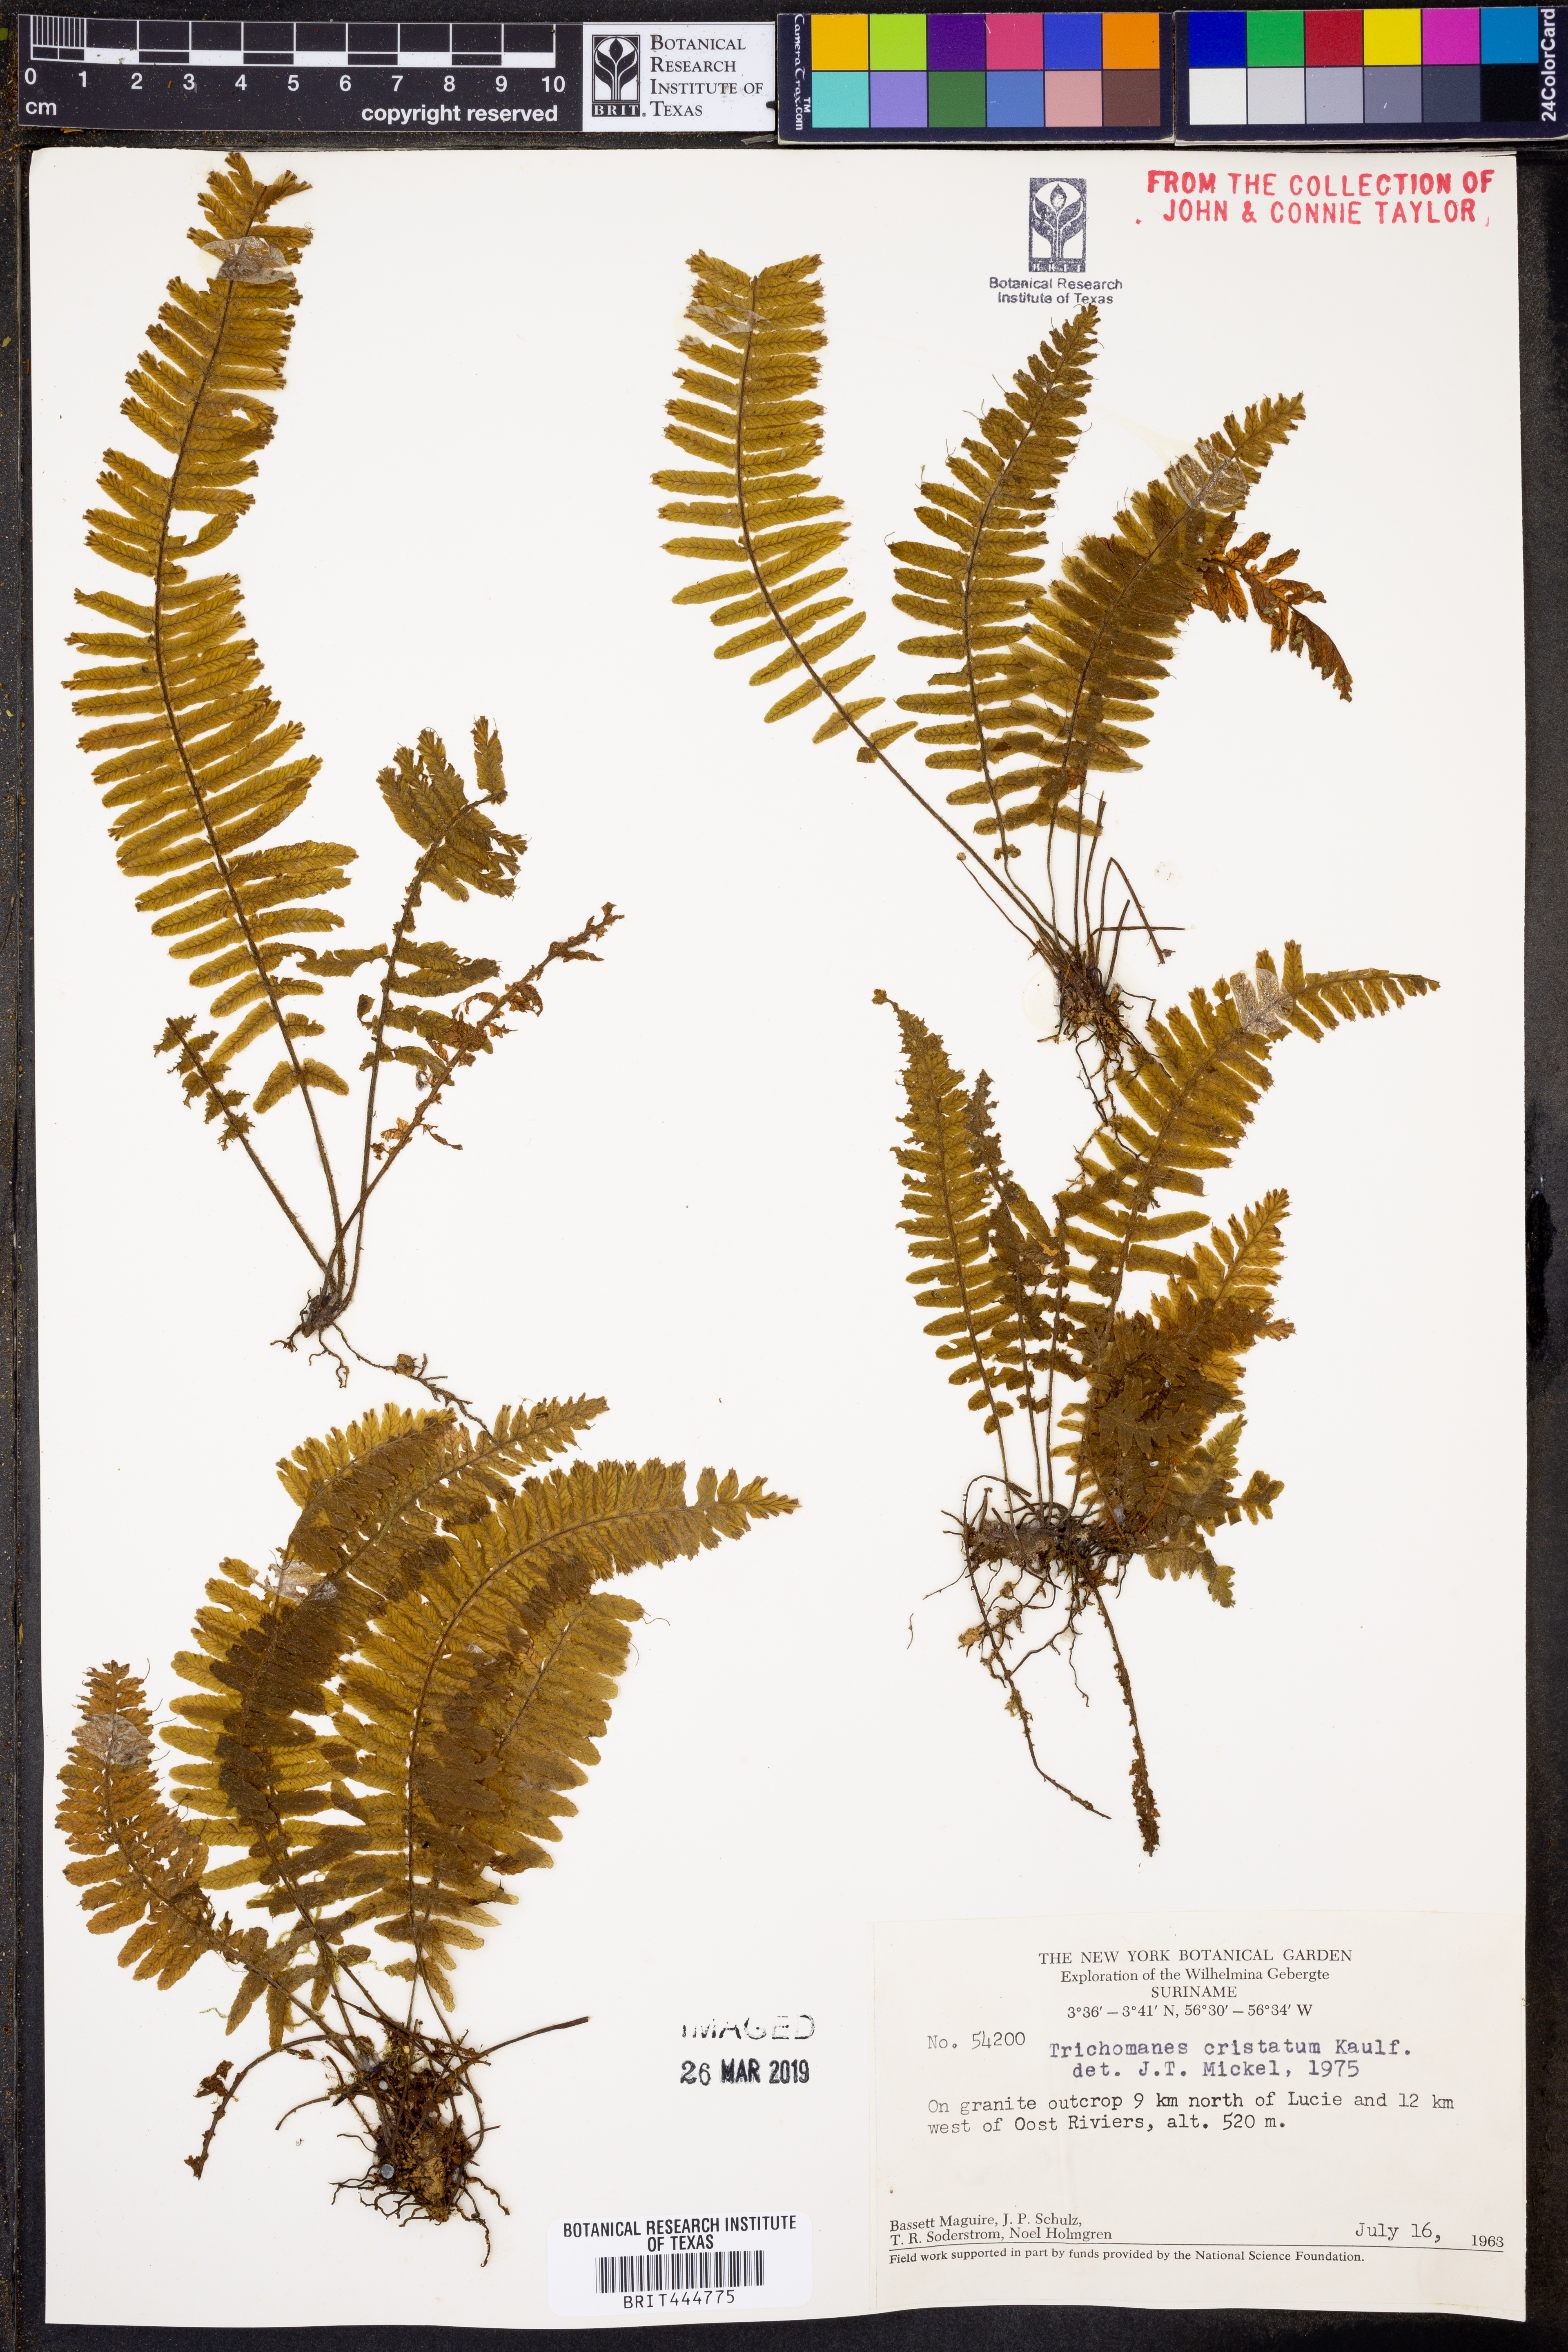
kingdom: Plantae
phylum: Tracheophyta
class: Polypodiopsida
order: Hymenophyllales
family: Hymenophyllaceae
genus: Trichomanes
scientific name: Trichomanes cristatum
